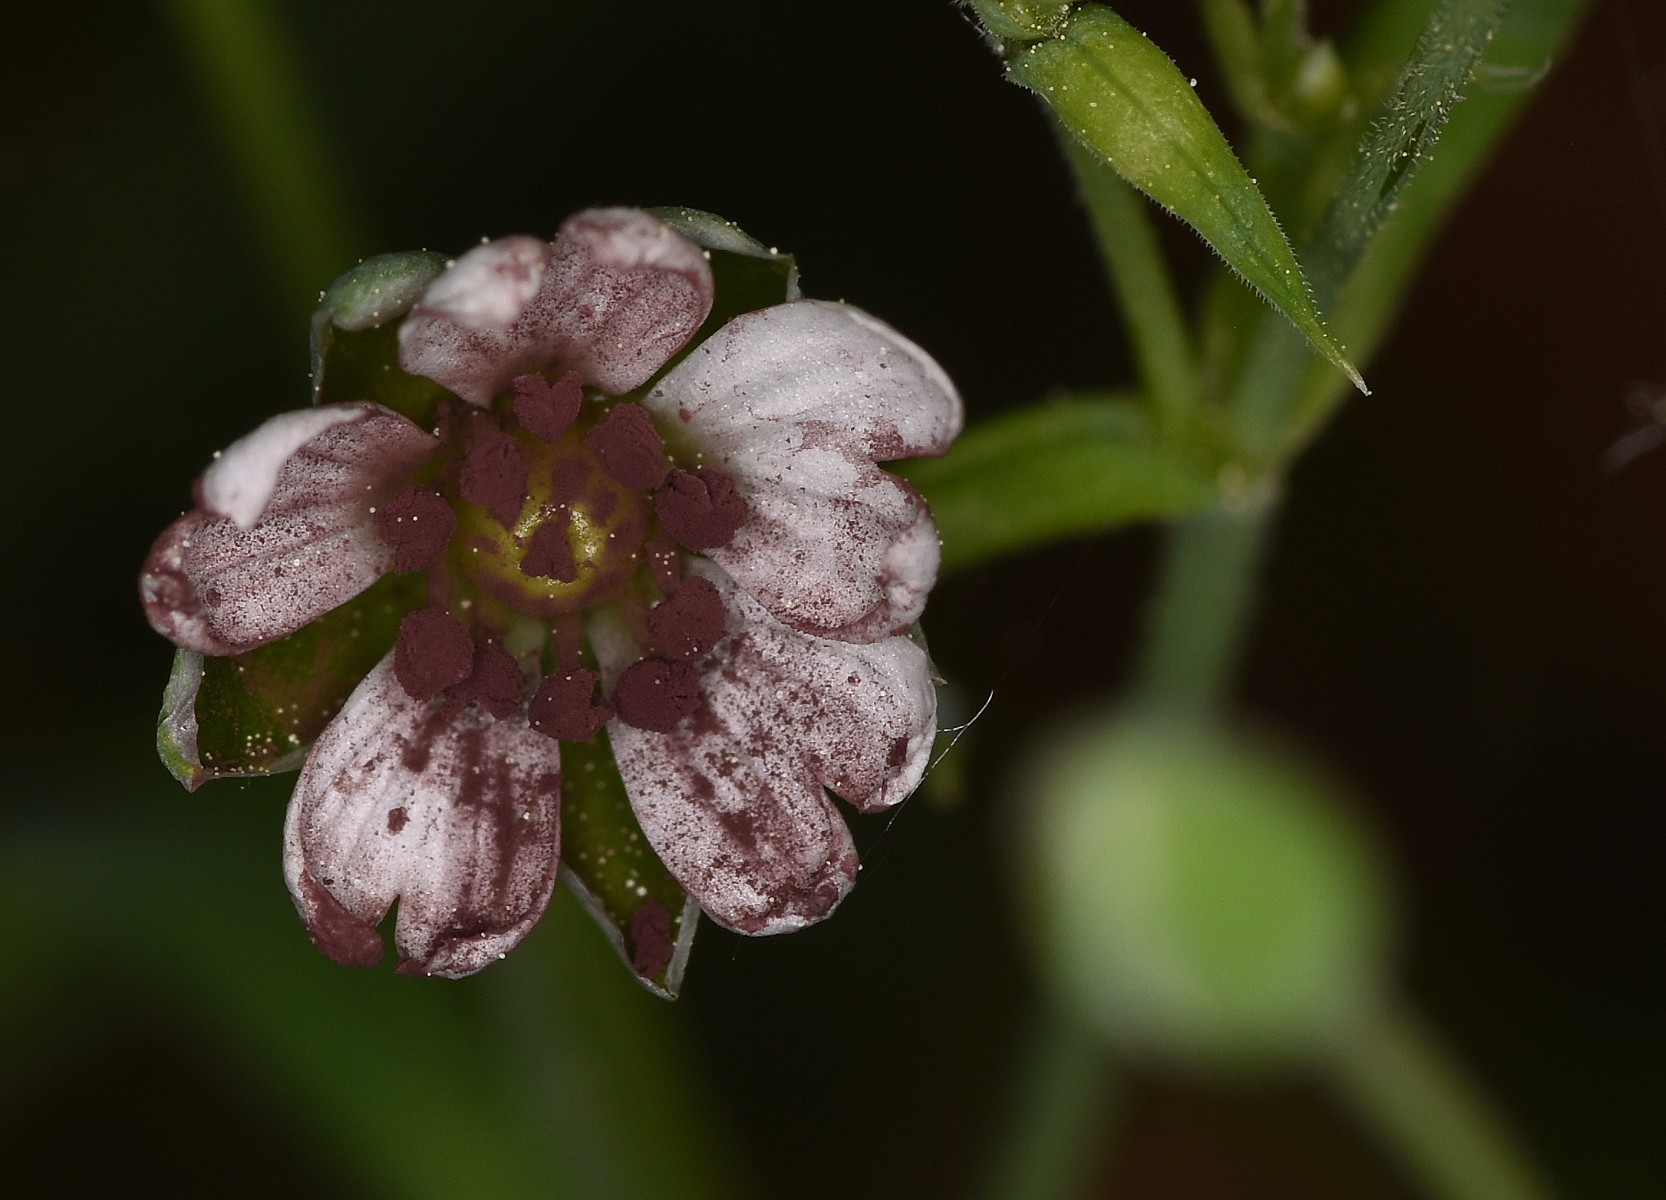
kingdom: Fungi
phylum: Basidiomycota
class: Microbotryomycetes
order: Microbotryales
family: Microbotryaceae
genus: Microbotryum
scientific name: Microbotryum stellariae
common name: fladstjerne-støvbladrust
